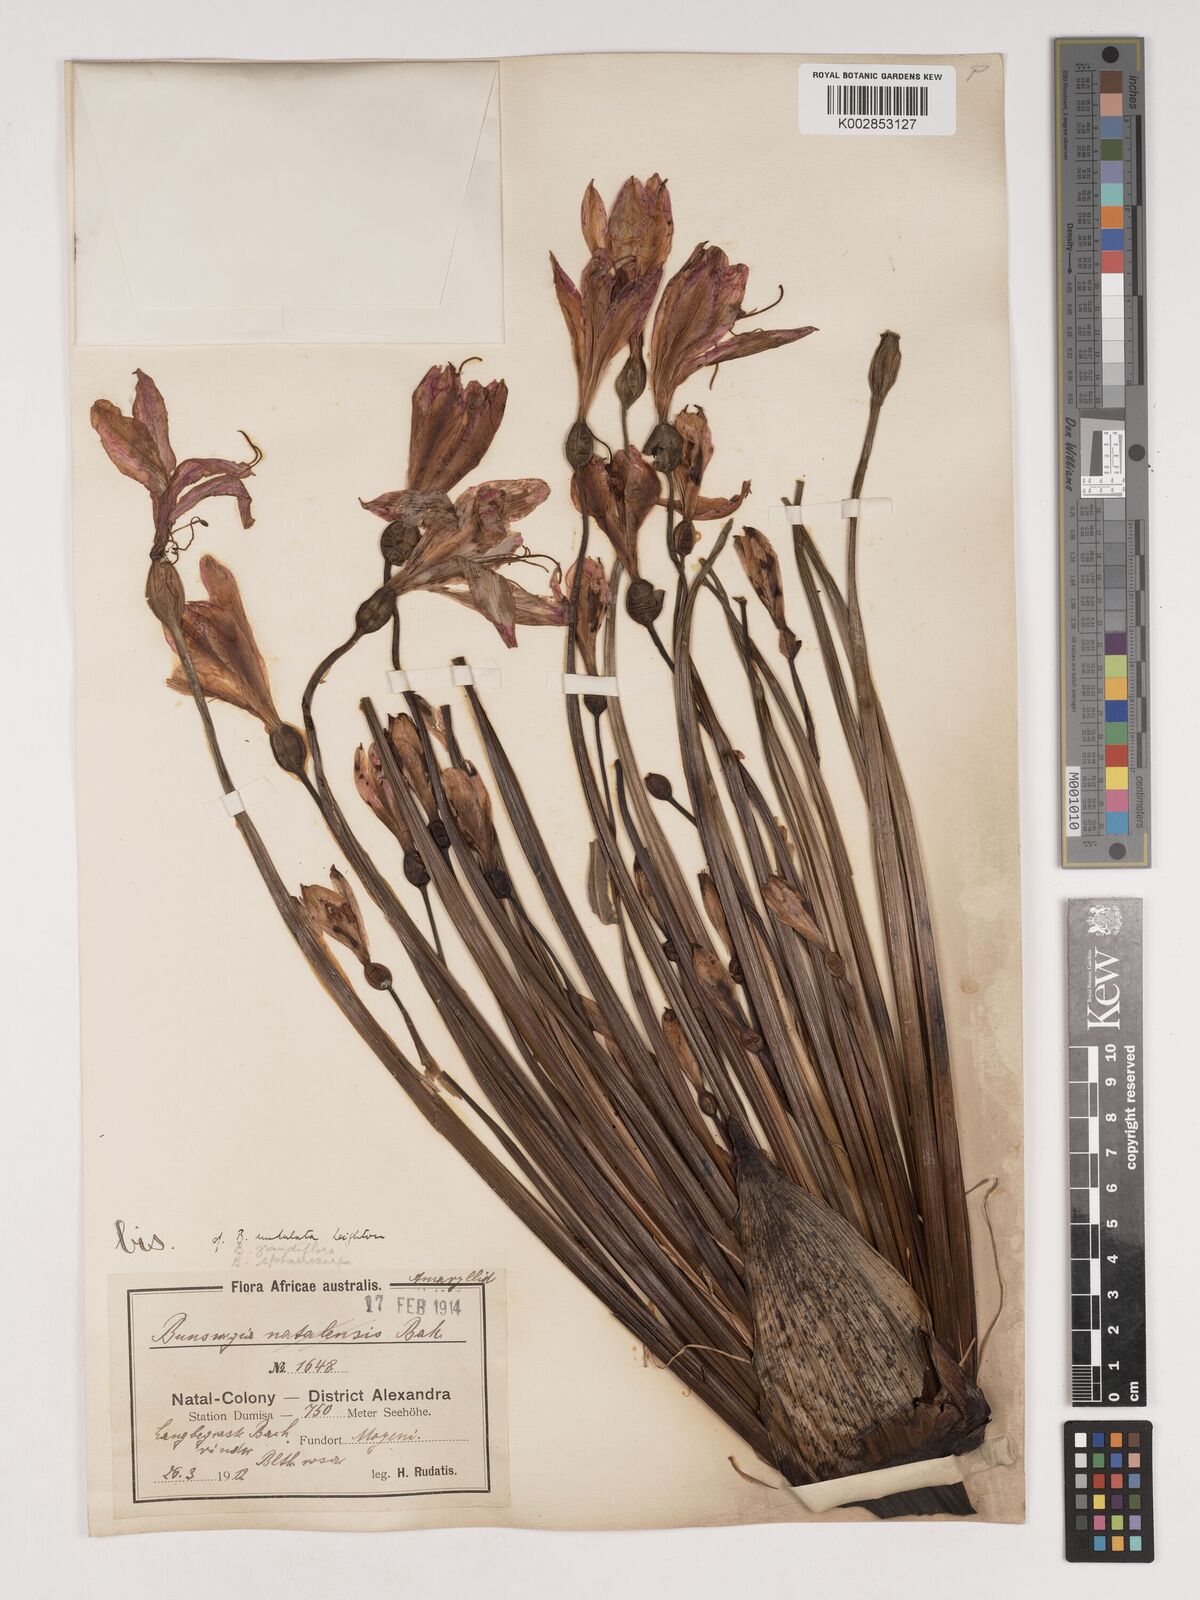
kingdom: Plantae
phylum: Tracheophyta
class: Liliopsida
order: Asparagales
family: Amaryllidaceae
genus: Brunsvigia
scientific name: Brunsvigia grandiflora
